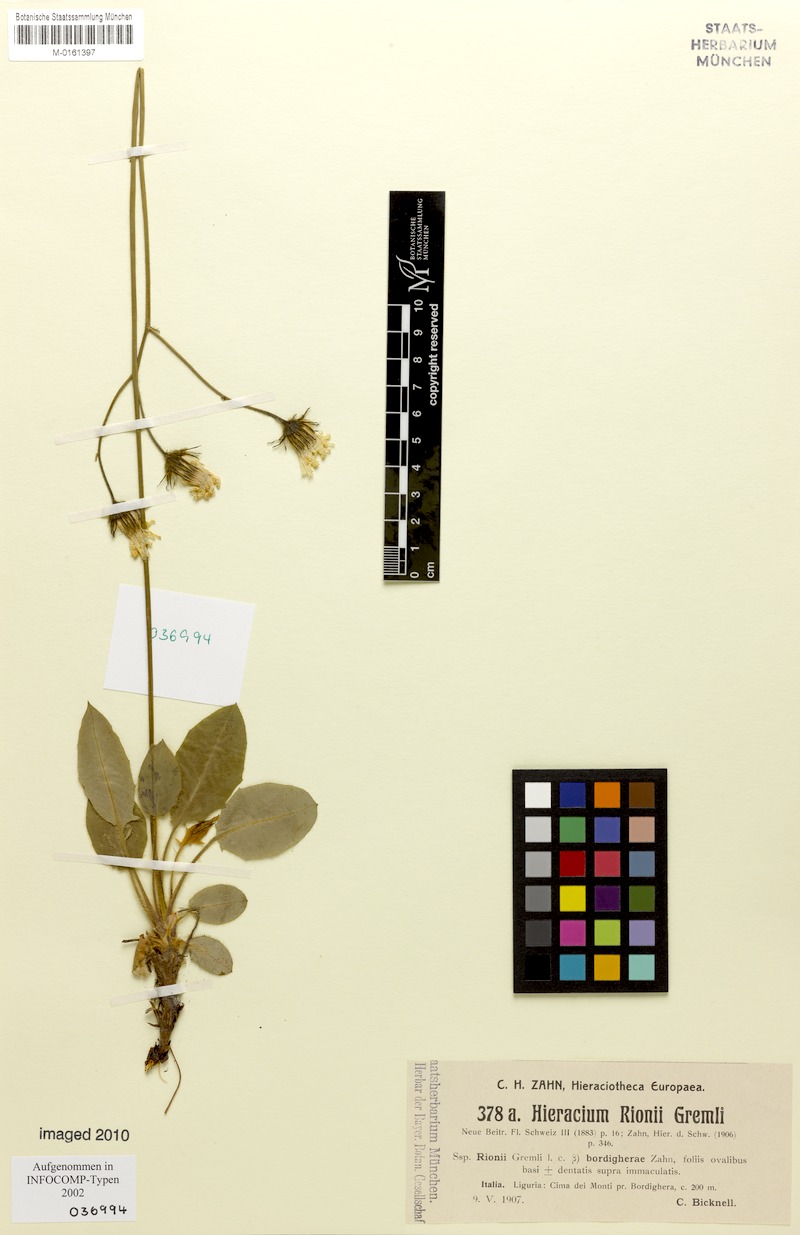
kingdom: Plantae
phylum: Tracheophyta
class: Magnoliopsida
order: Asterales
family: Asteraceae
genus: Hieracium
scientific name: Hieracium caesioides
